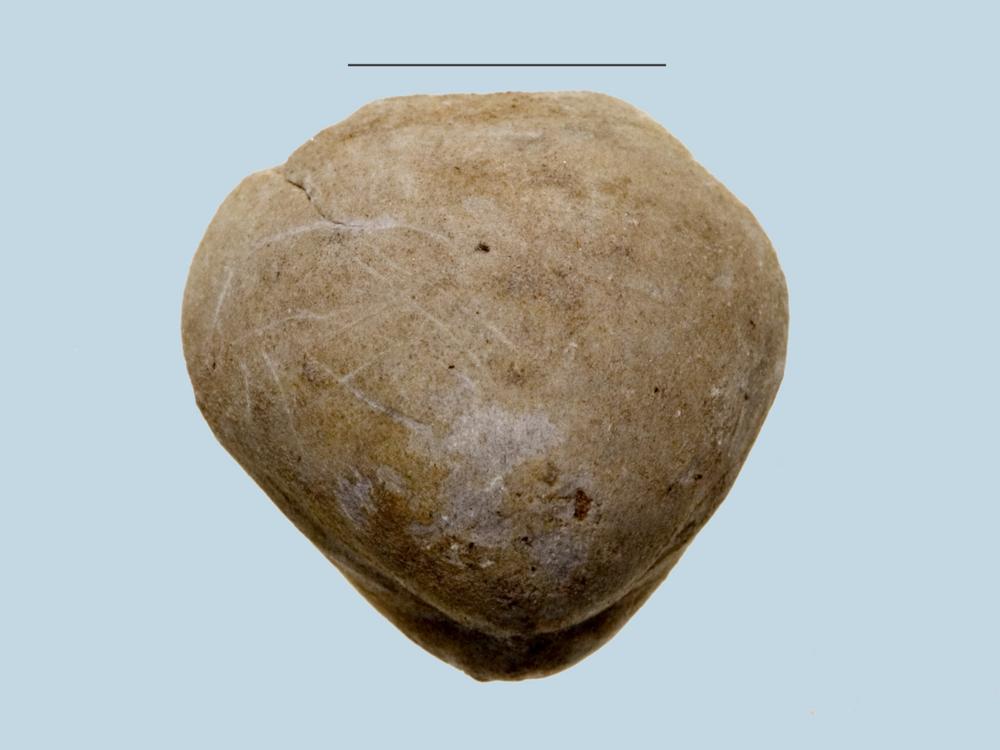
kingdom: Animalia
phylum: Brachiopoda
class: Rhynchonellata
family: Porambonitidae
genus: Porambonites
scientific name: Porambonites
